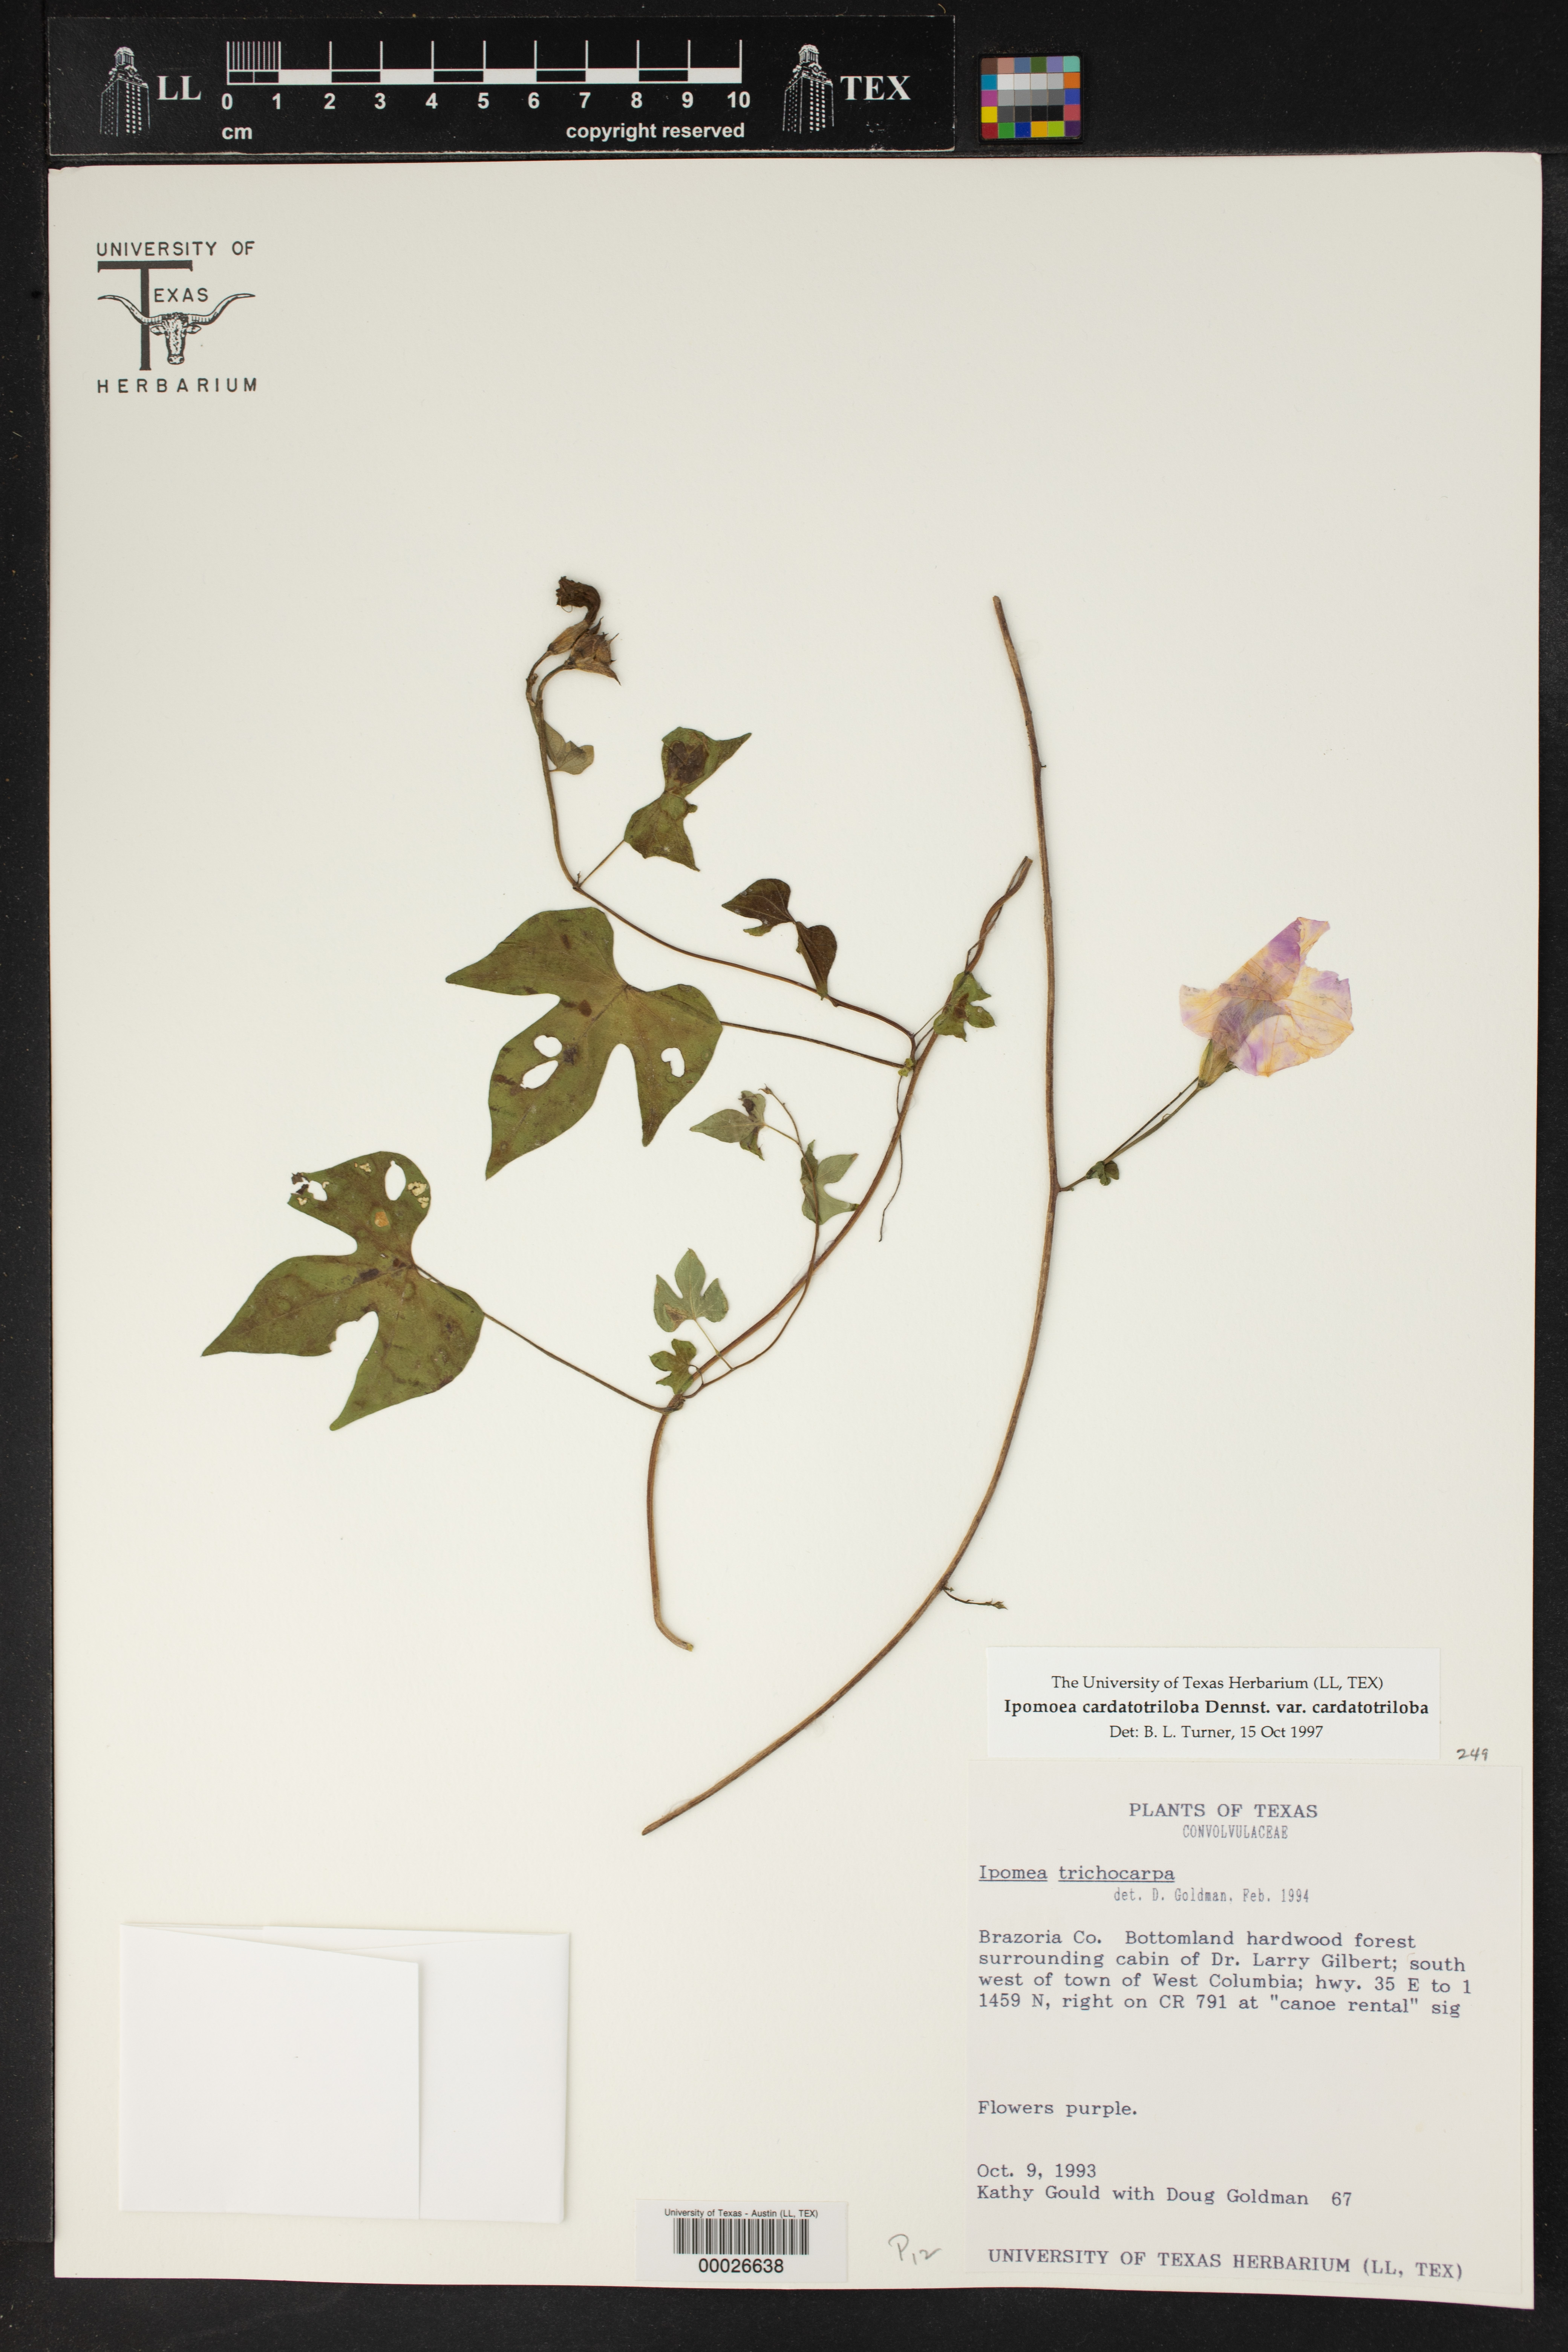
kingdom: Plantae
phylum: Tracheophyta
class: Magnoliopsida
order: Solanales
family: Convolvulaceae
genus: Ipomoea
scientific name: Ipomoea cordatotriloba
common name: Cotton morning glory
